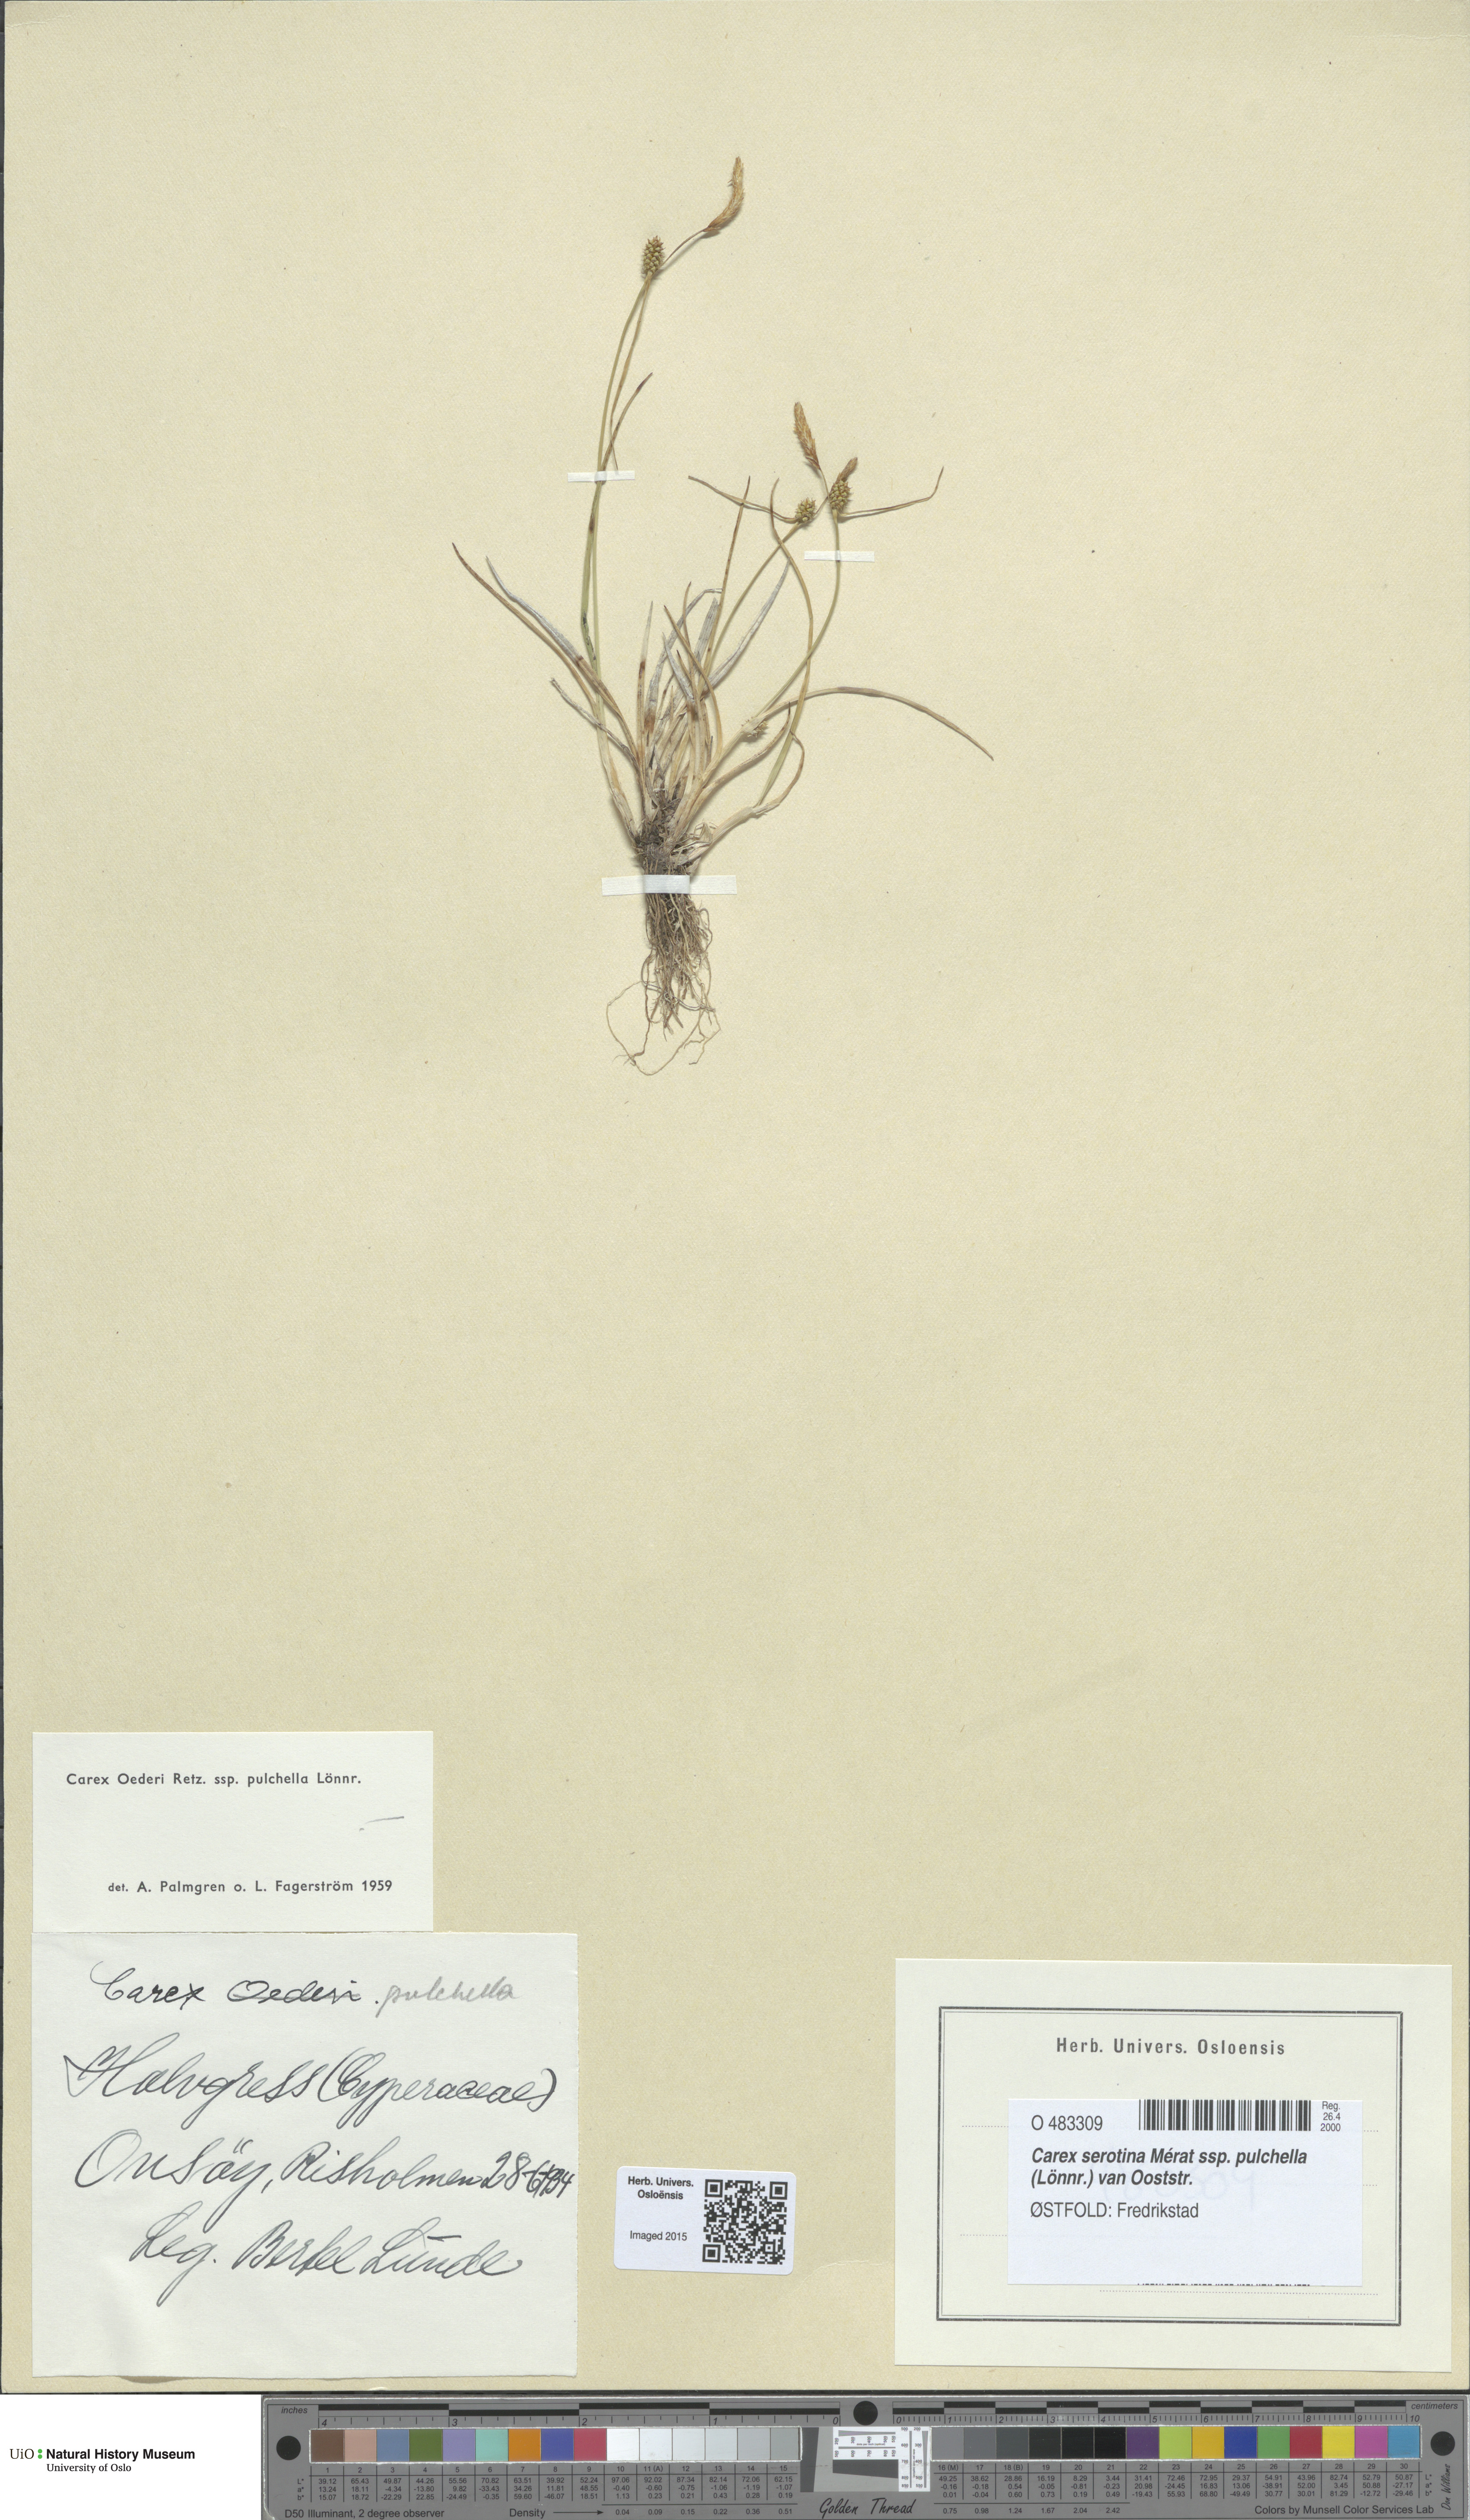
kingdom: Plantae
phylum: Tracheophyta
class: Liliopsida
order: Poales
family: Cyperaceae
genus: Carex
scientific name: Carex oederi
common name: Common & small-fruited yellow-sedge
